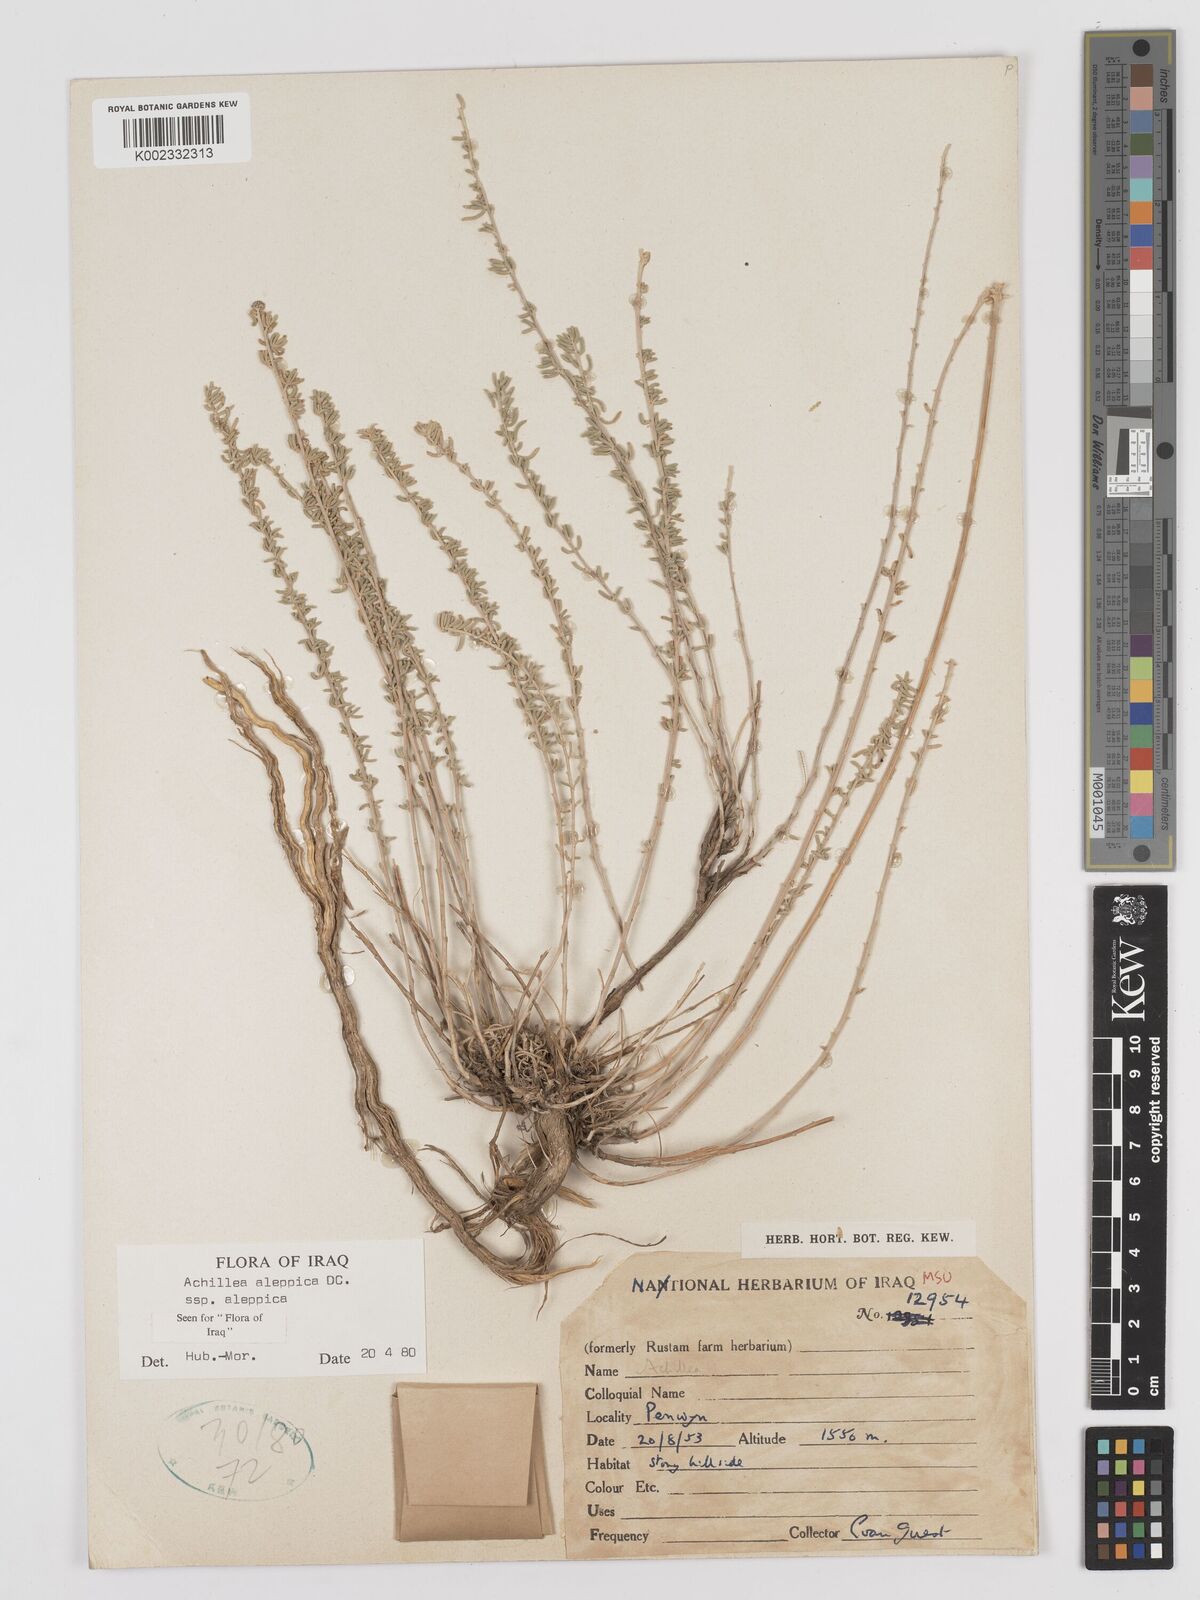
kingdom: Plantae
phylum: Tracheophyta
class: Magnoliopsida
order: Asterales
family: Asteraceae
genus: Achillea
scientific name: Achillea aleppica
